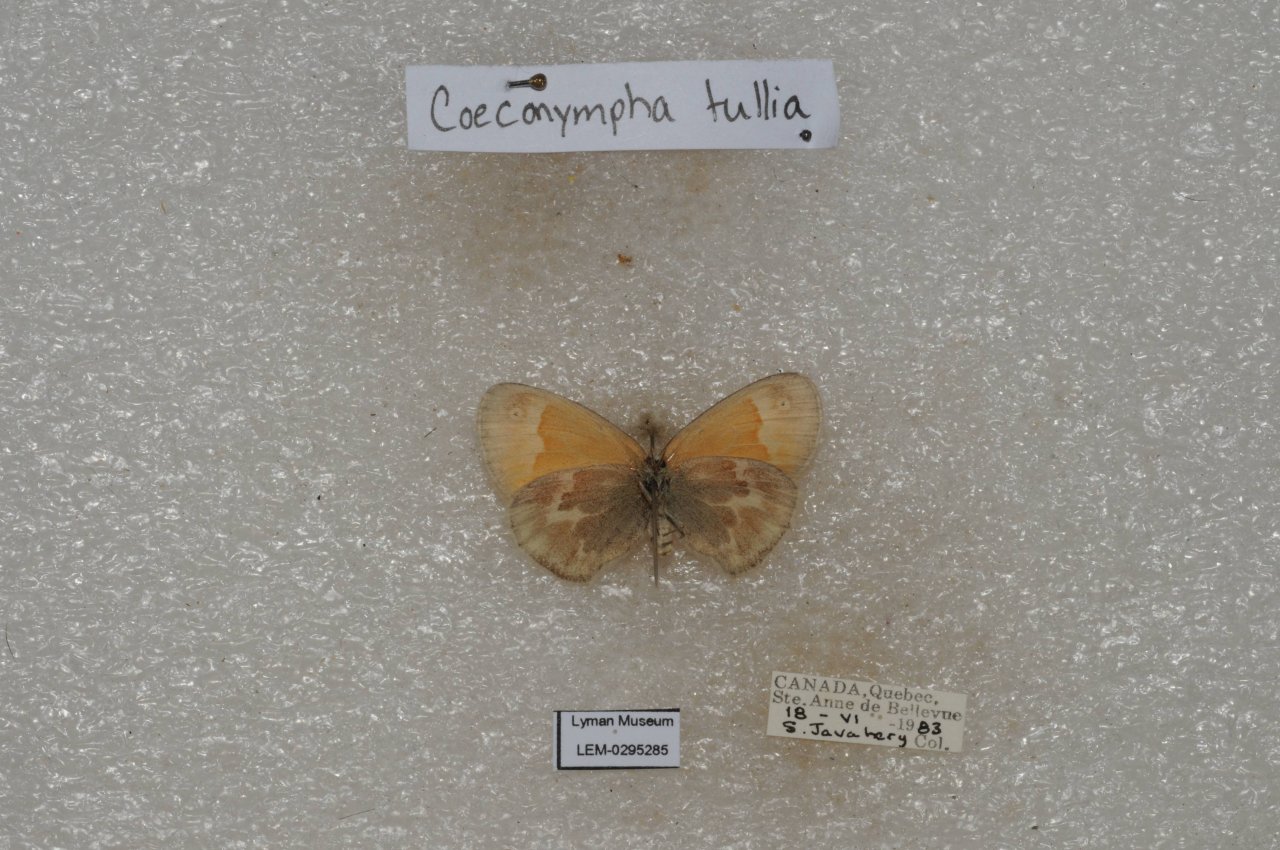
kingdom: Animalia
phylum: Arthropoda
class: Insecta
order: Lepidoptera
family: Nymphalidae
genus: Coenonympha
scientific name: Coenonympha tullia
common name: Large Heath
